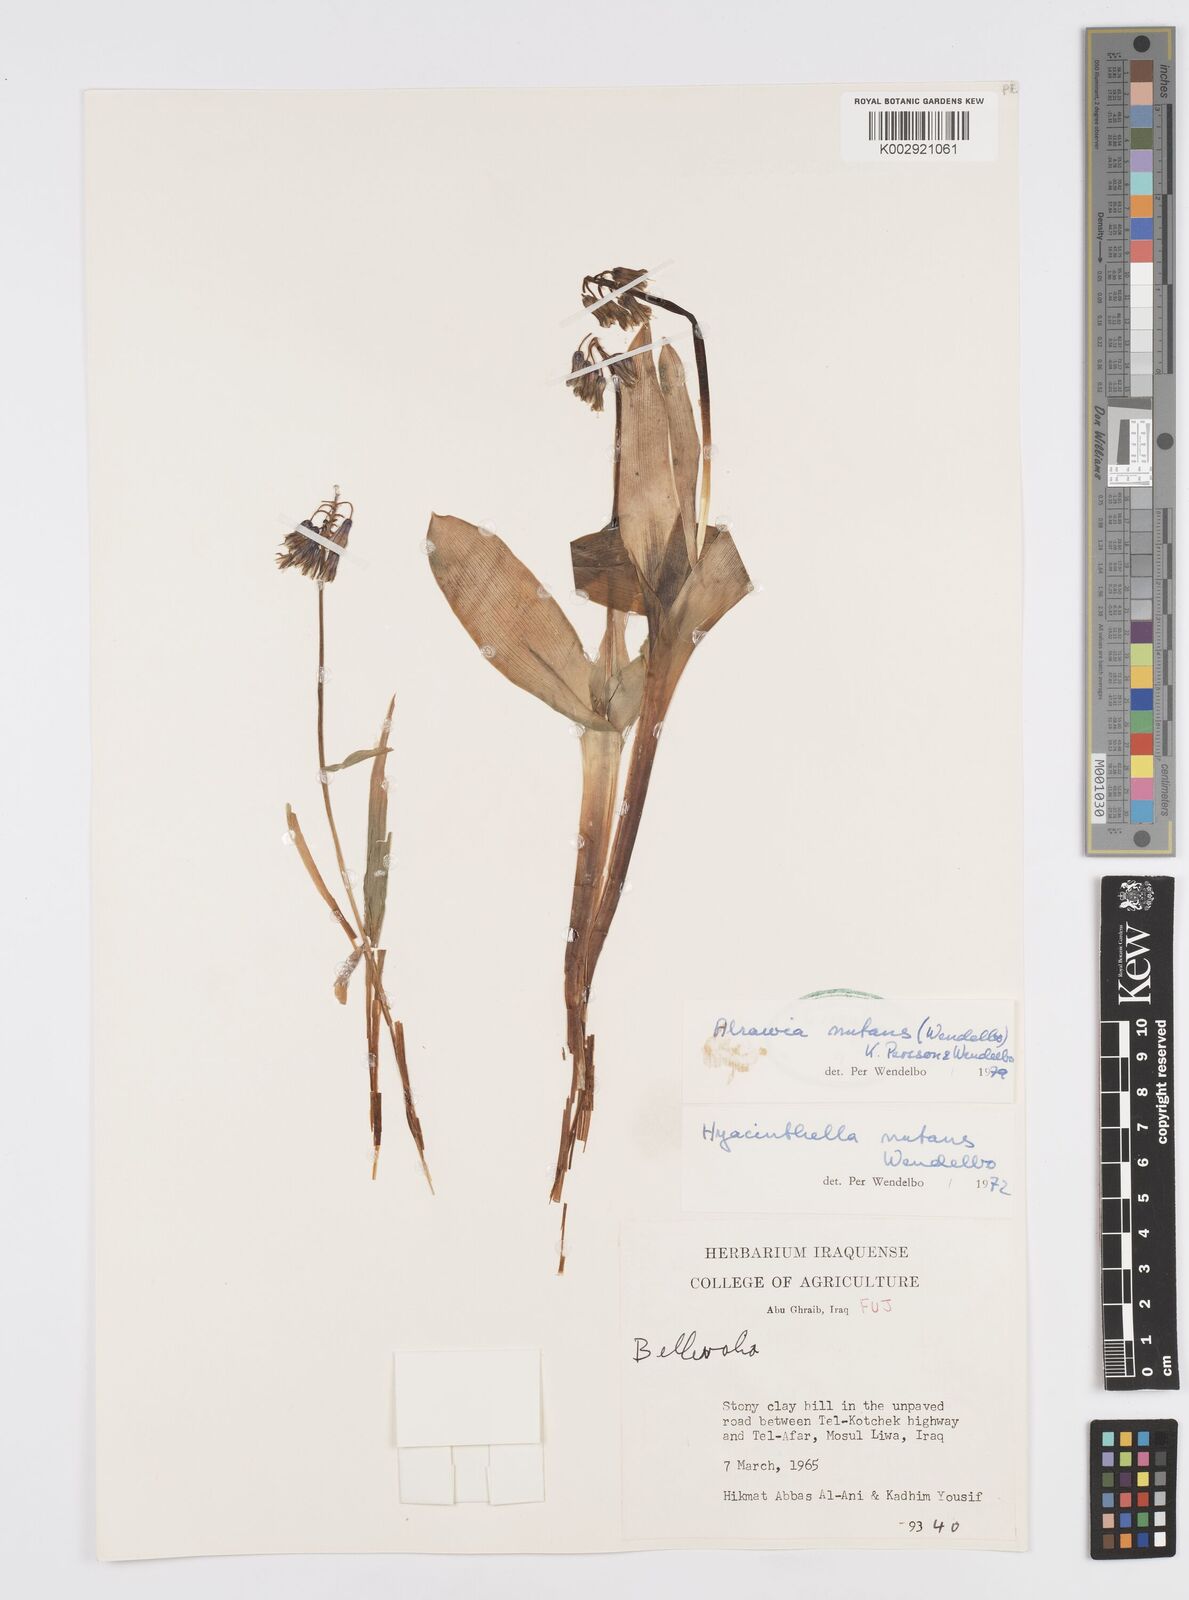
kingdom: Plantae
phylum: Tracheophyta
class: Liliopsida
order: Asparagales
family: Asparagaceae
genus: Alrawia
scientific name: Alrawia nutans
